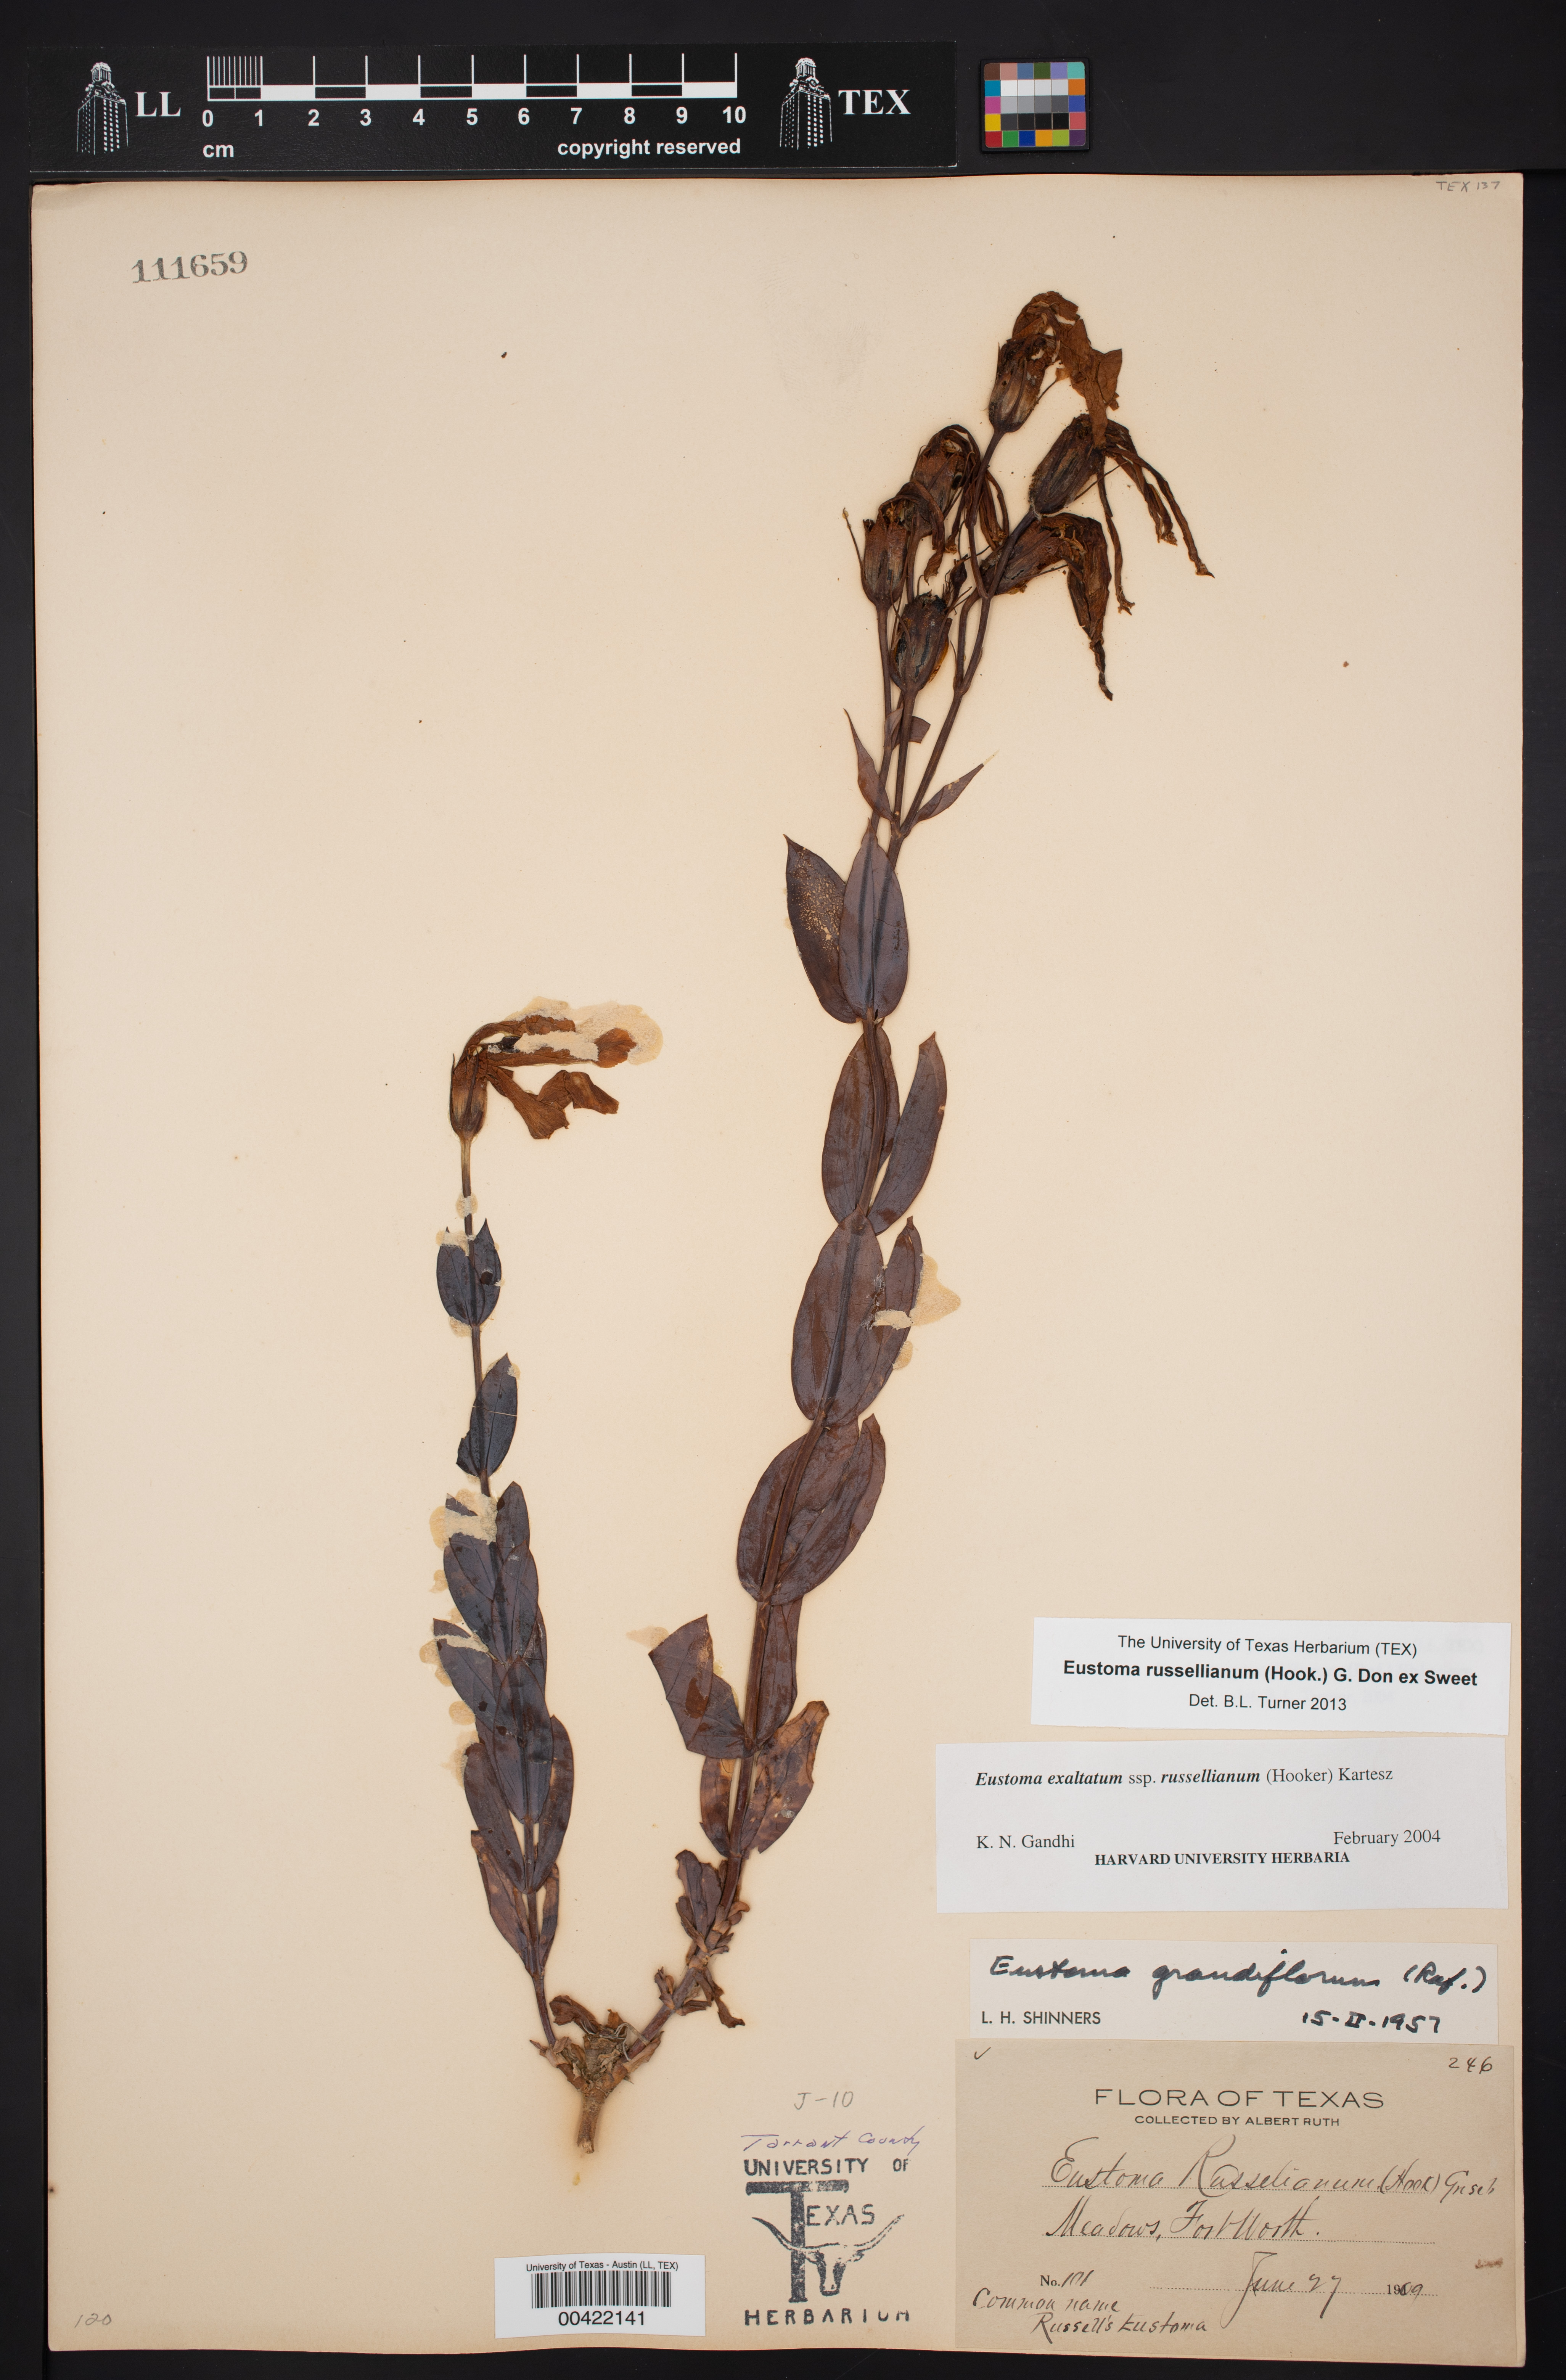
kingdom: Plantae
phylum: Tracheophyta
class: Magnoliopsida
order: Gentianales
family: Gentianaceae
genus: Eustoma
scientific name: Eustoma russellianum
